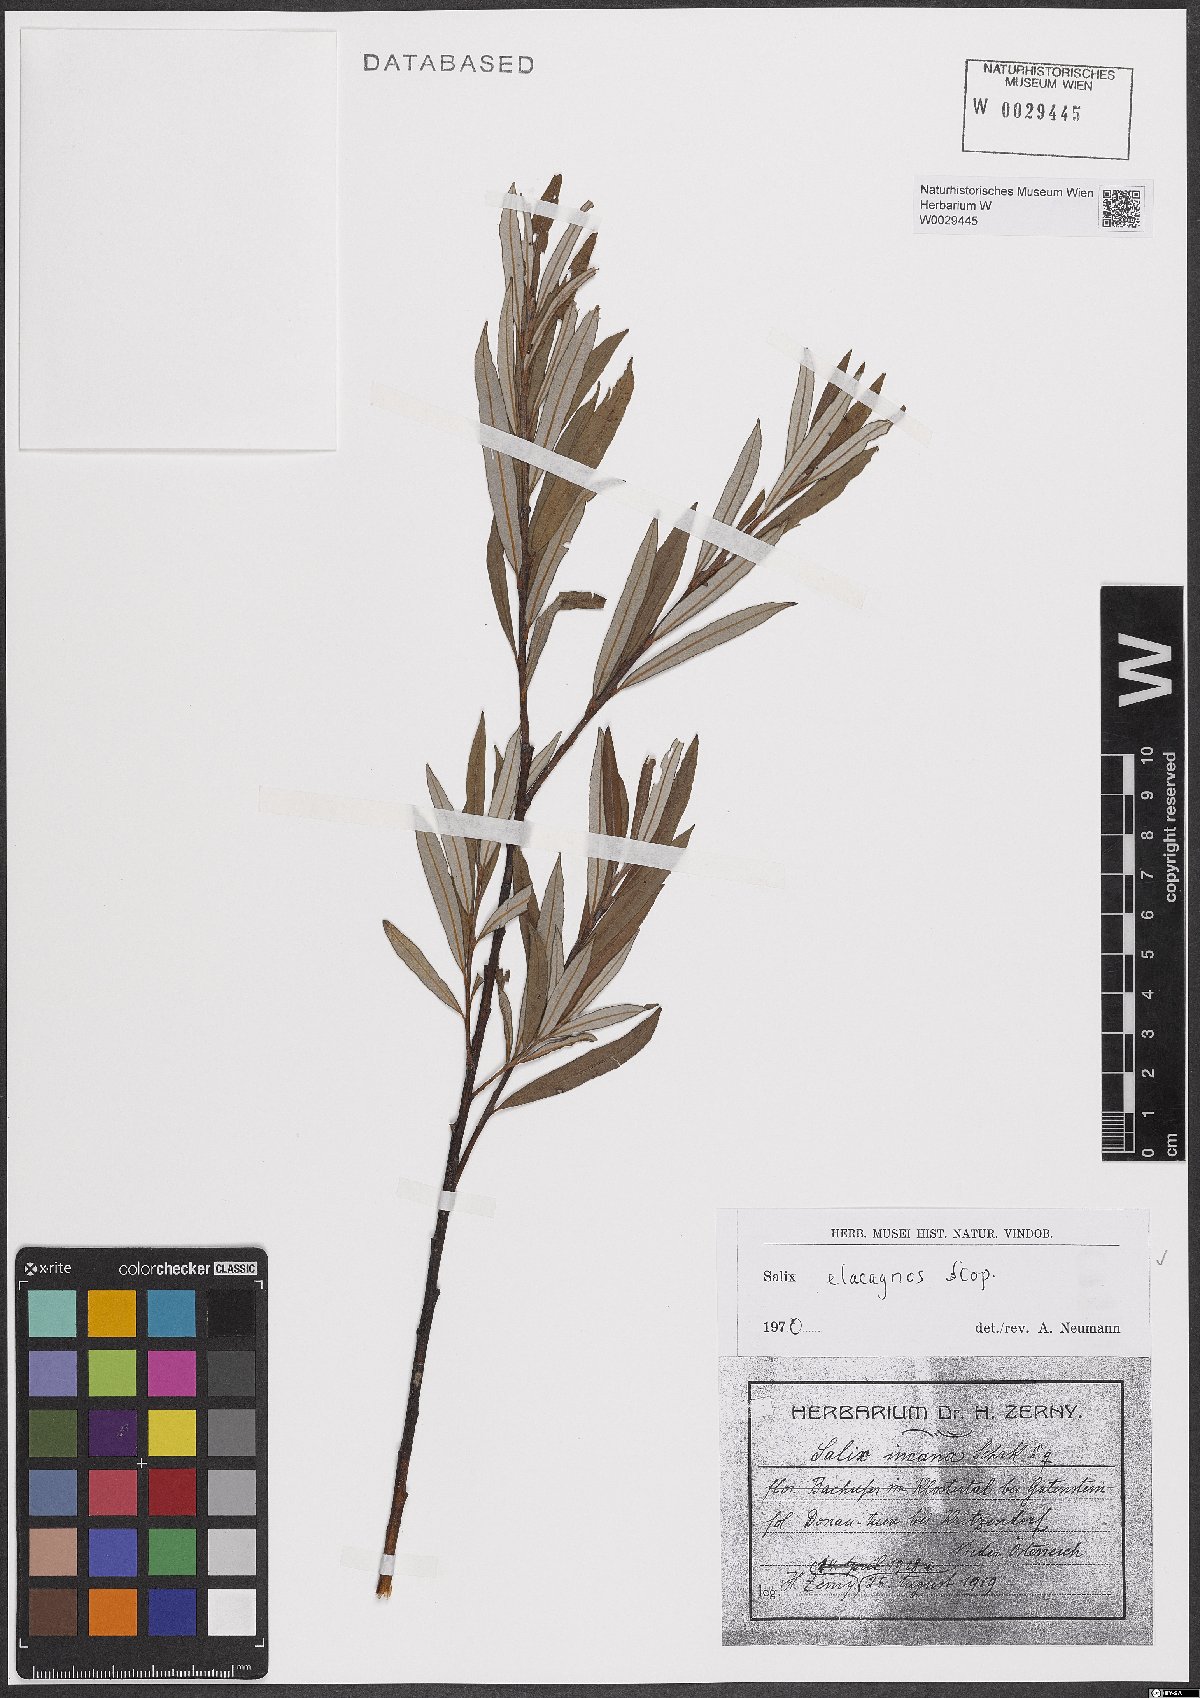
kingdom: Plantae
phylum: Tracheophyta
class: Magnoliopsida
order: Malpighiales
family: Salicaceae
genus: Salix
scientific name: Salix eleagnos
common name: Elaeagnus willow
